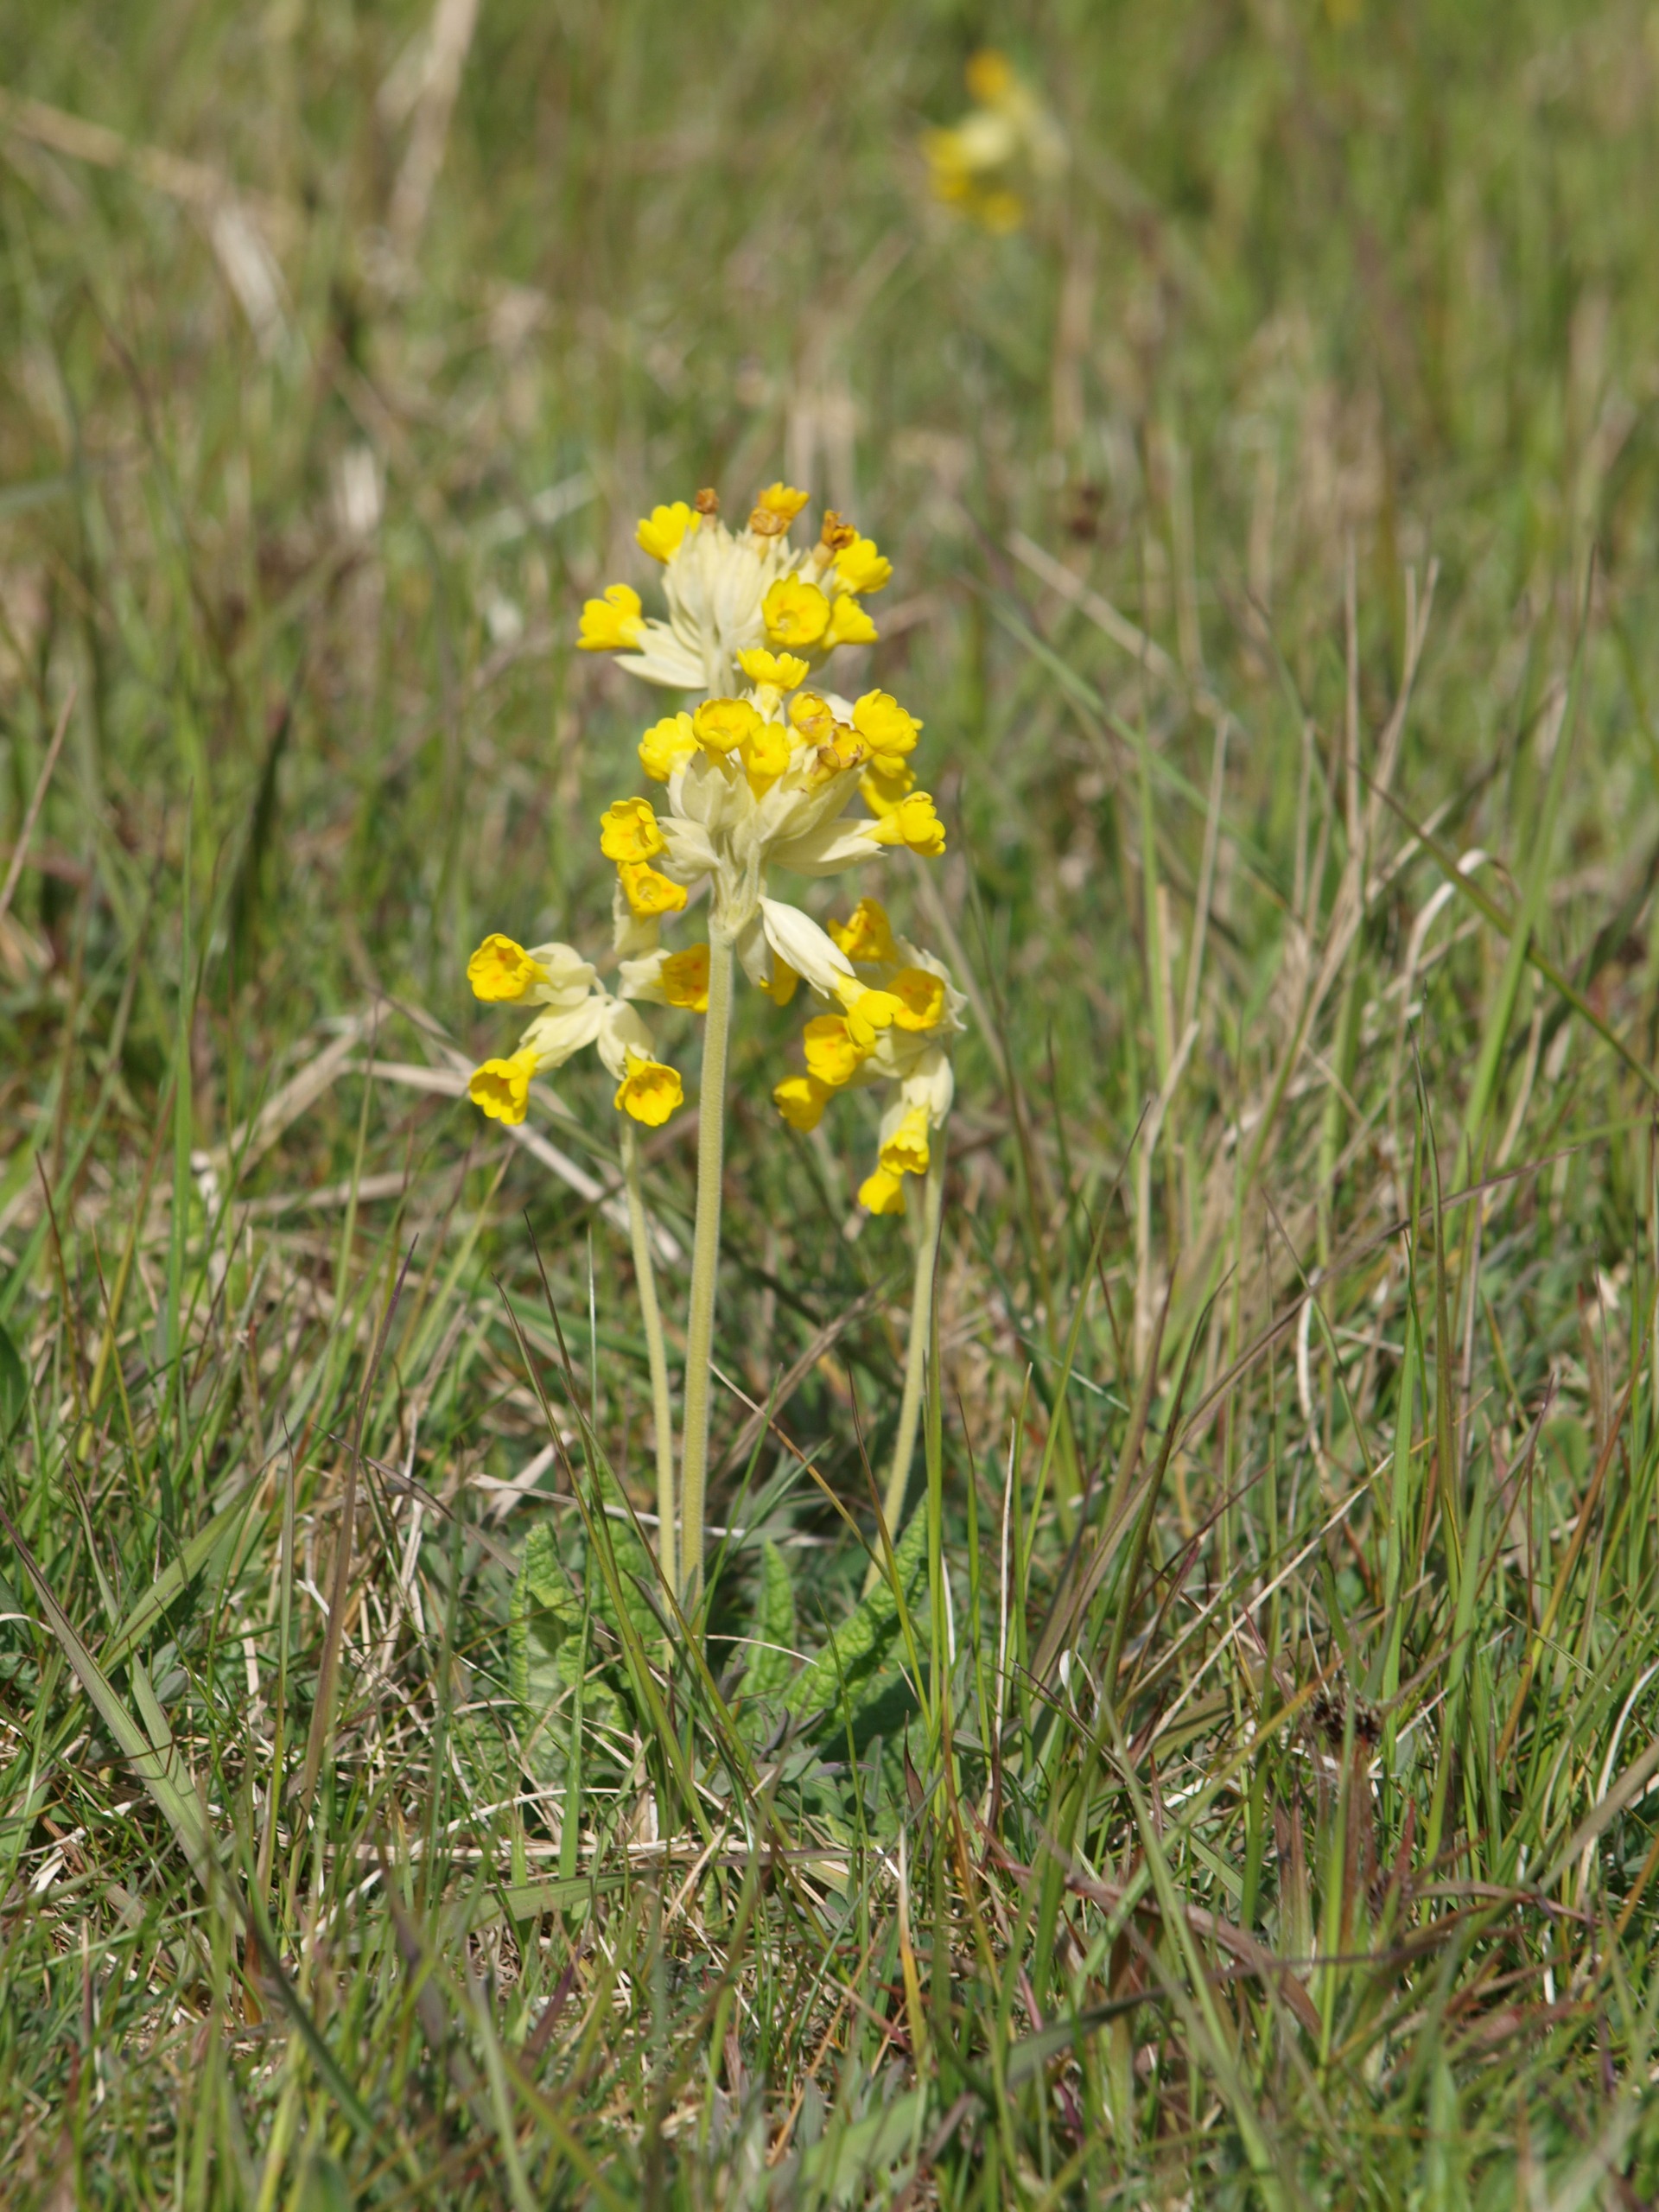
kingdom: Plantae
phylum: Tracheophyta
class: Magnoliopsida
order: Ericales
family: Primulaceae
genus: Primula
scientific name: Primula veris
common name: Hulkravet kodriver
